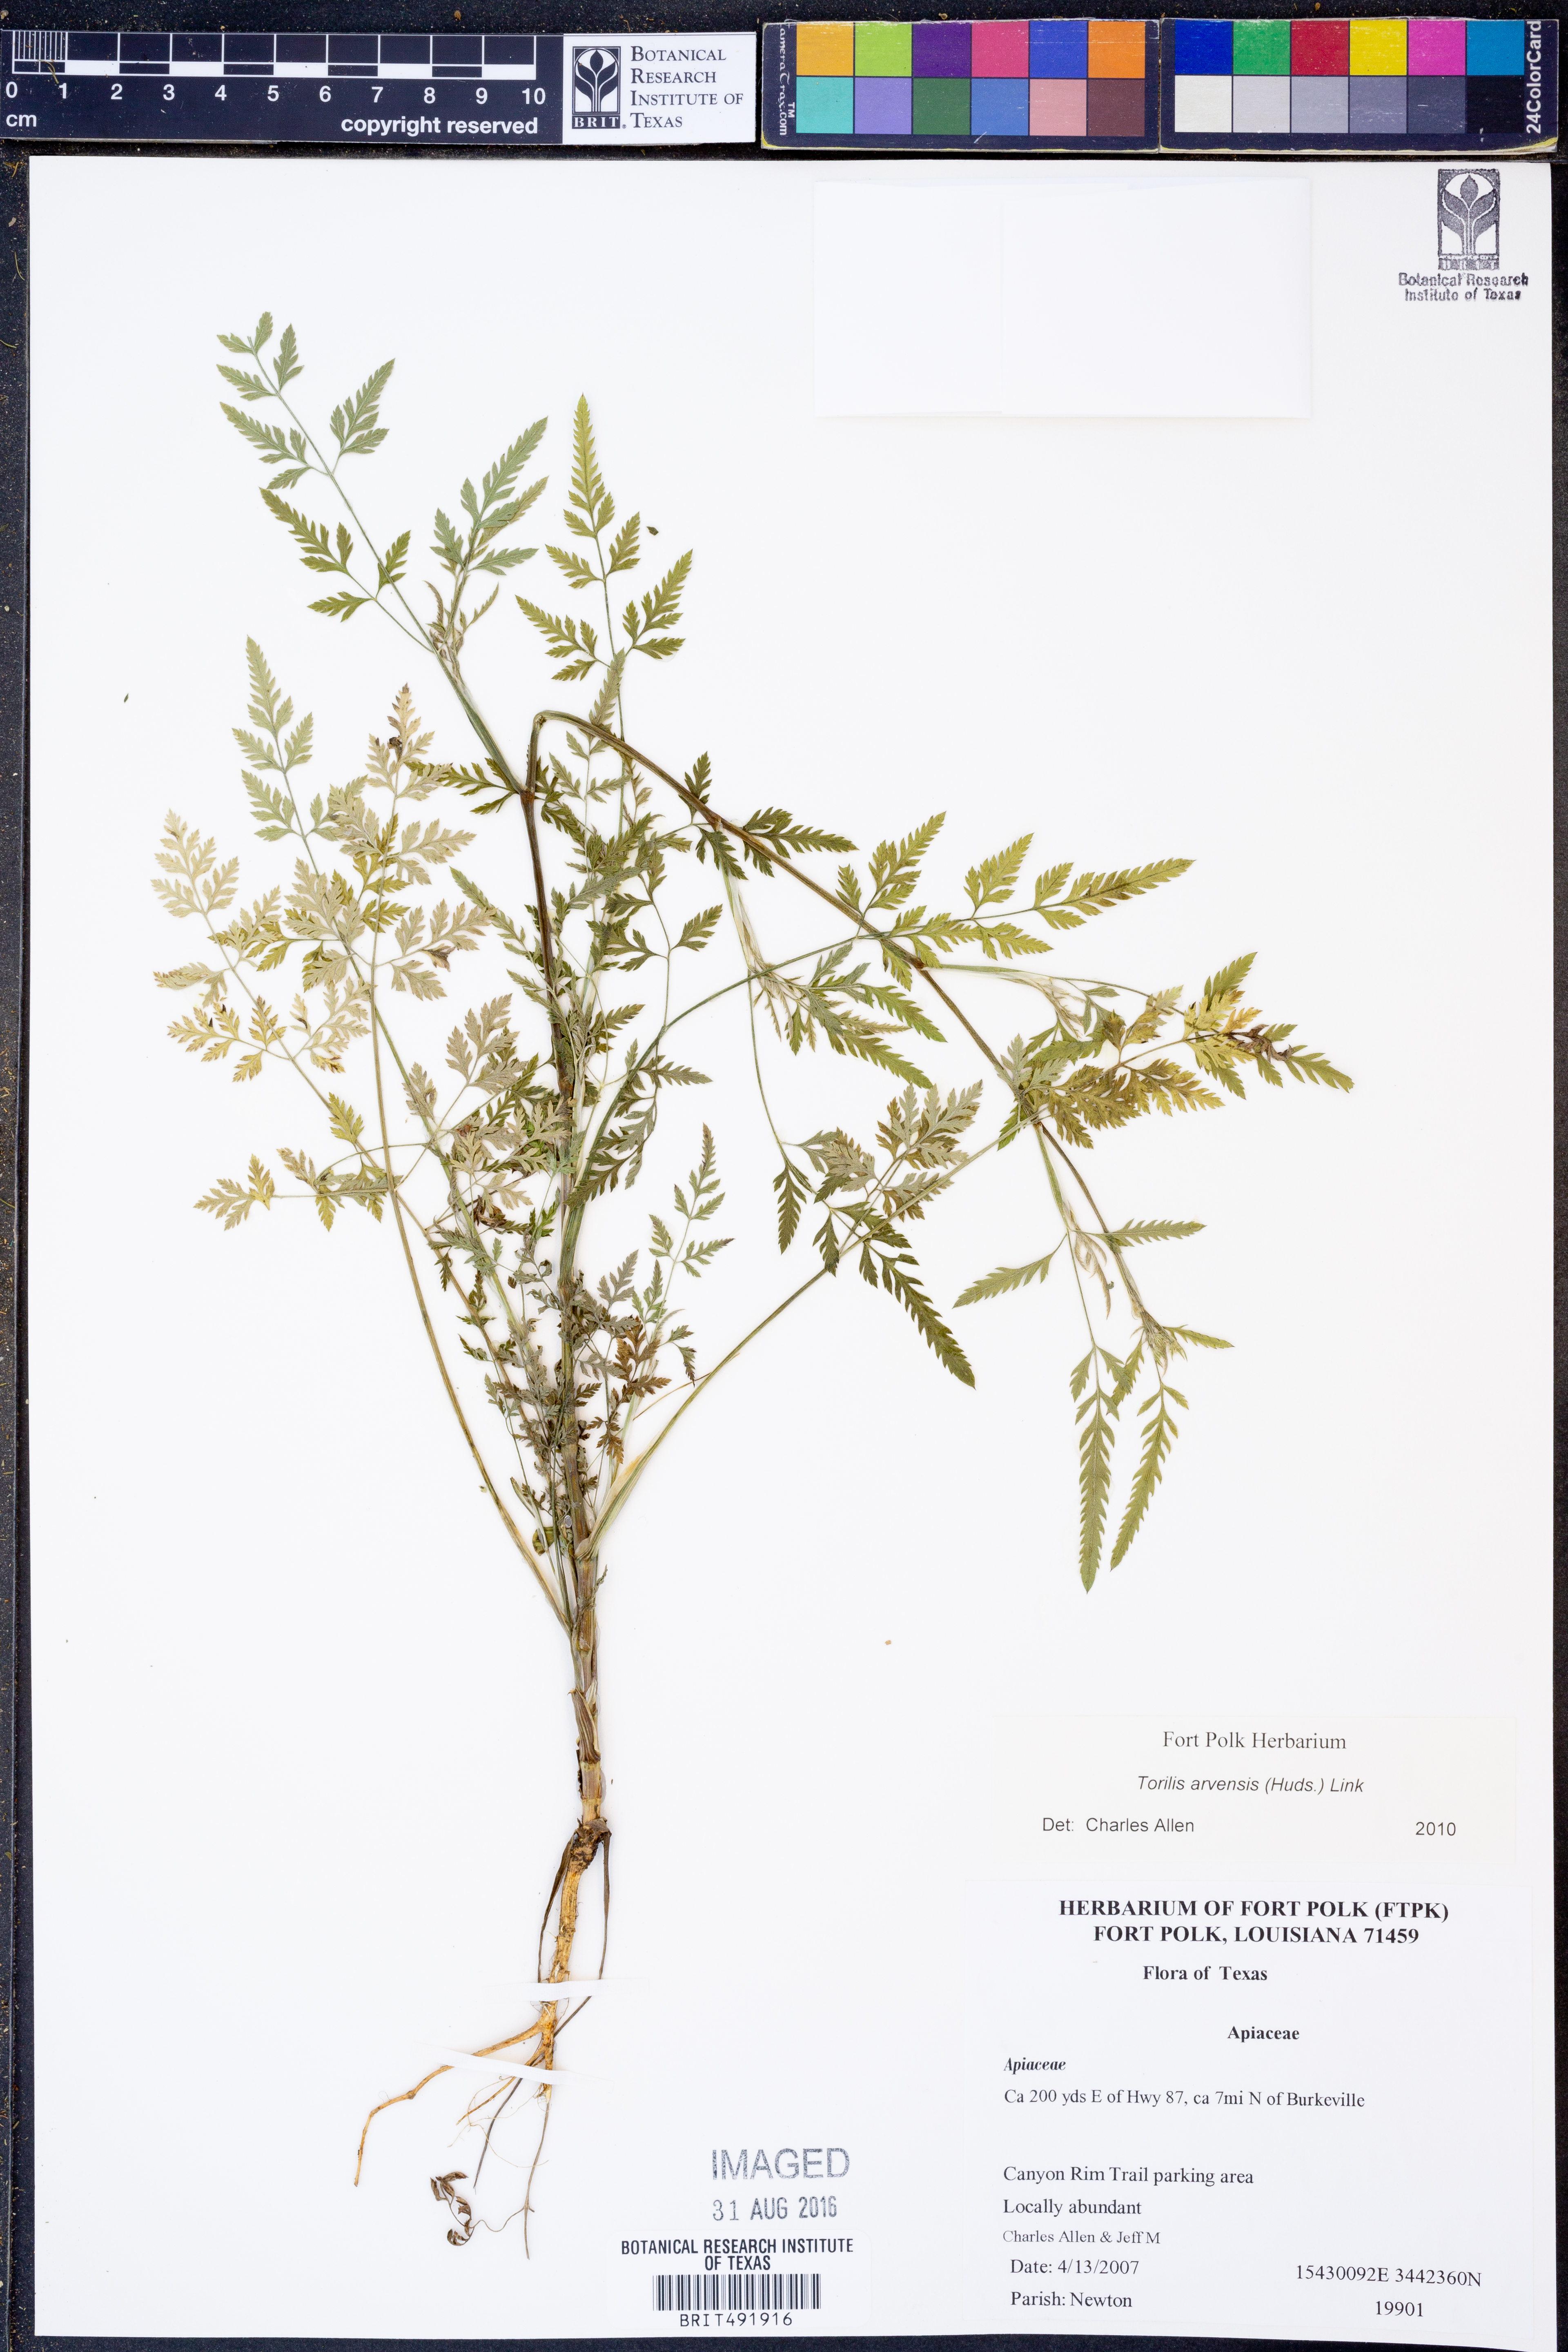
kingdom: Plantae
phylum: Tracheophyta
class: Magnoliopsida
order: Apiales
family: Apiaceae
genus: Torilis
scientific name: Torilis arvensis
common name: Spreading hedge-parsley
